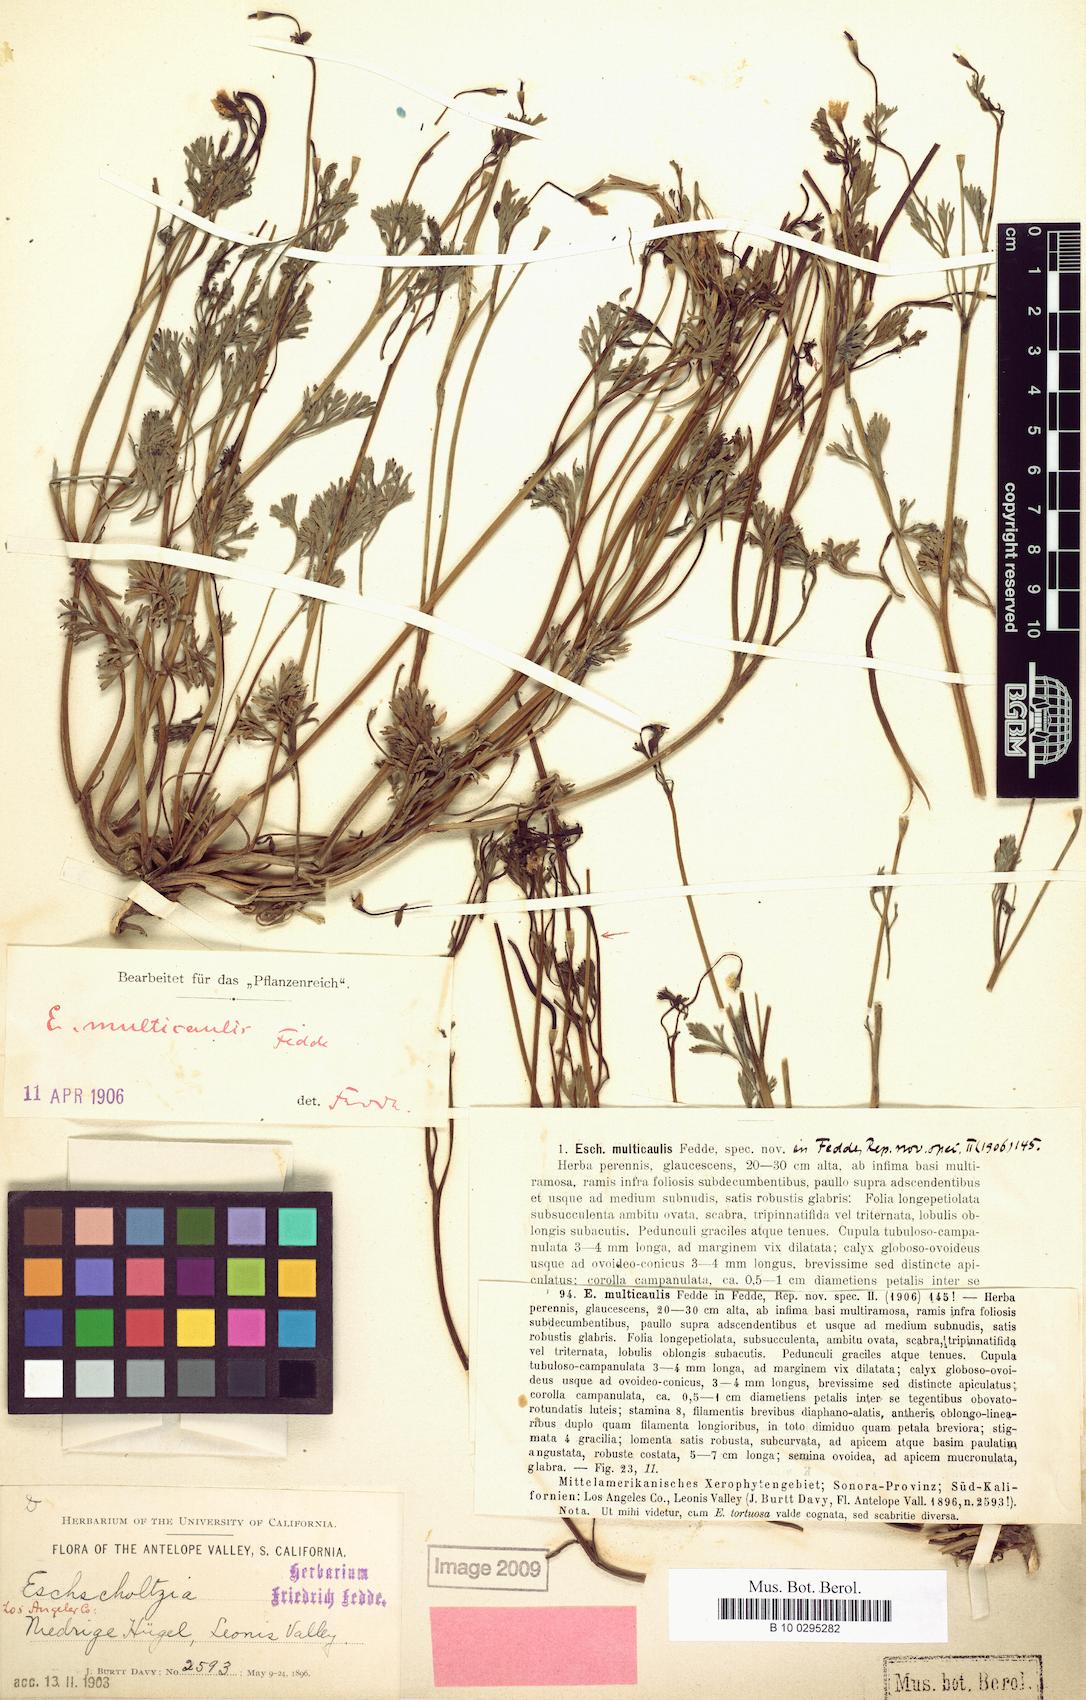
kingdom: Plantae
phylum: Tracheophyta
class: Magnoliopsida
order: Ranunculales
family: Papaveraceae
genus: Eschscholzia
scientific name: Eschscholzia minutiflora
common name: Small-flower california-poppy
